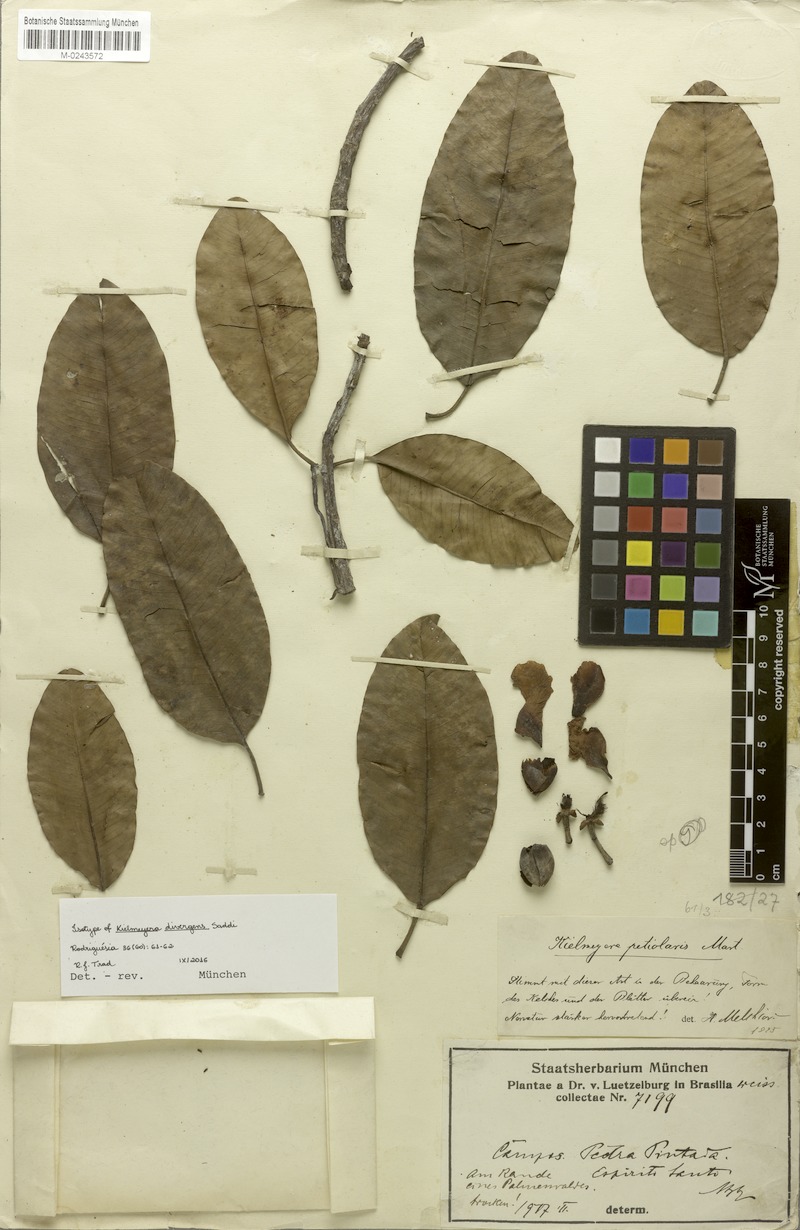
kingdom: Plantae
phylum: Tracheophyta
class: Magnoliopsida
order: Malpighiales
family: Calophyllaceae
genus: Kielmeyera
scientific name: Kielmeyera divergens
